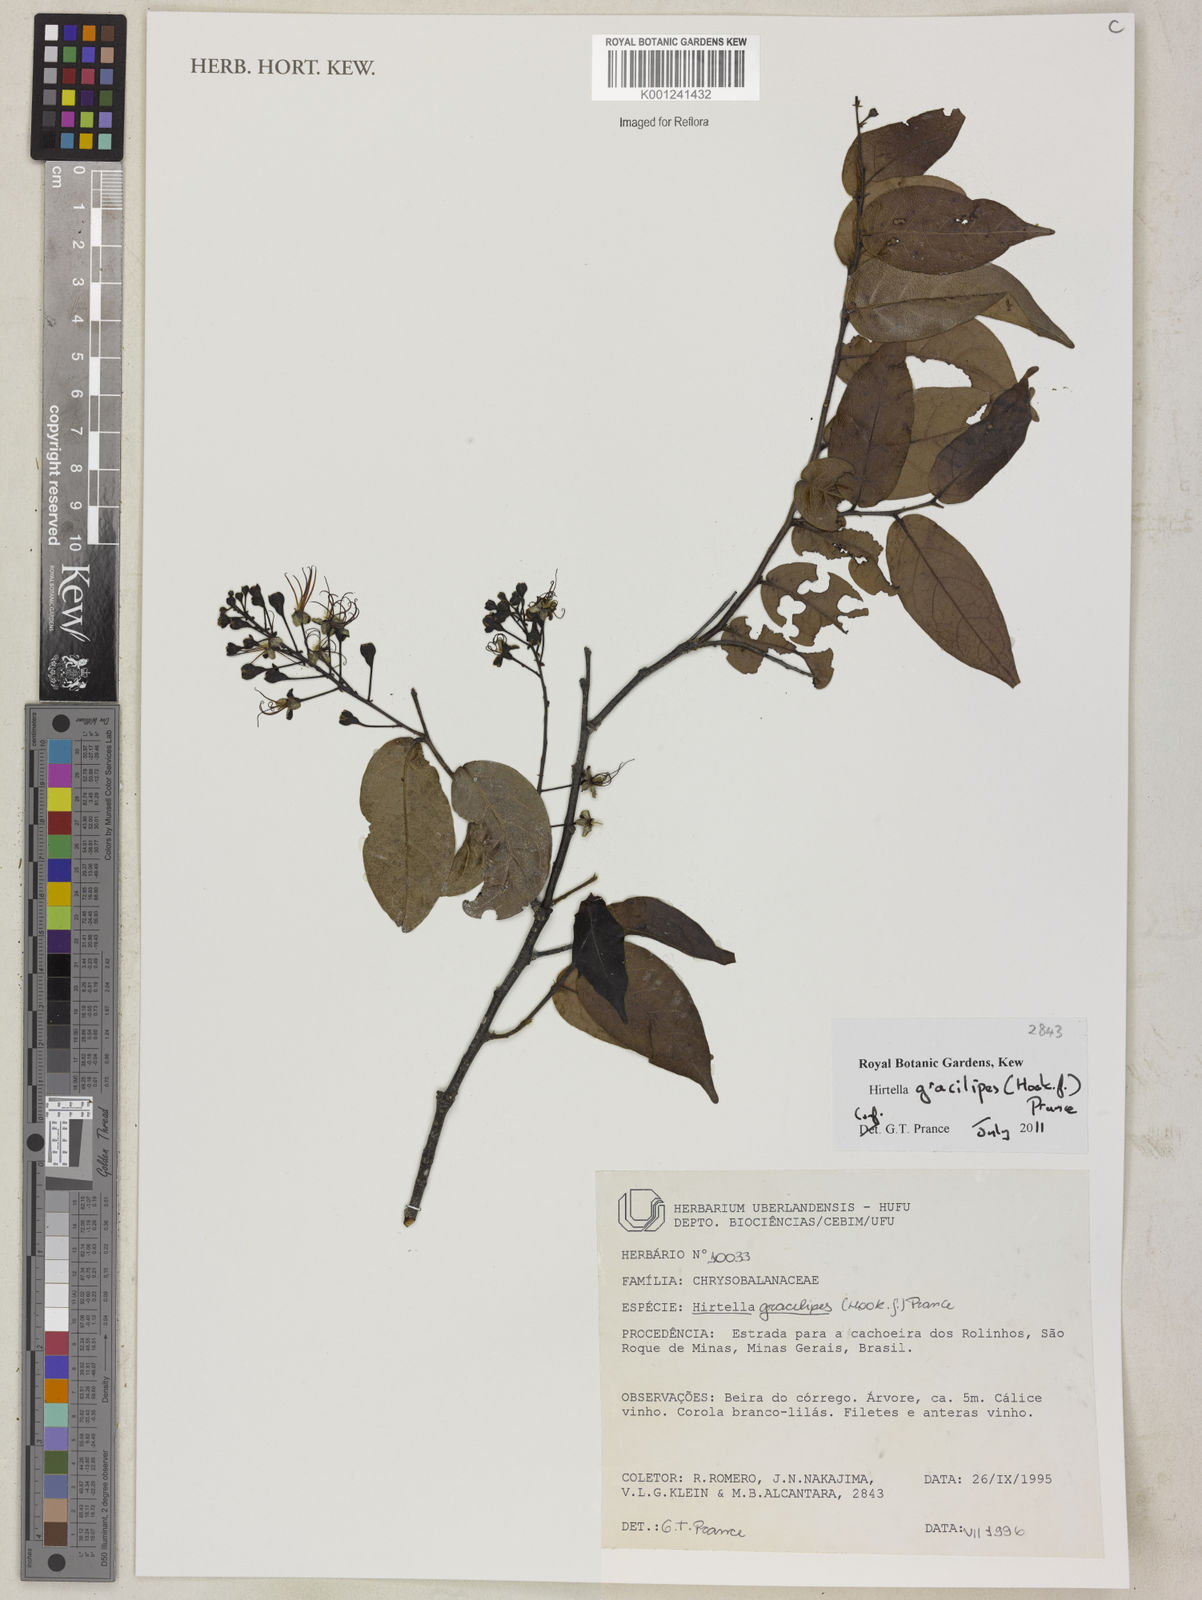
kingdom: Plantae
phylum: Tracheophyta
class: Magnoliopsida
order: Malpighiales
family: Chrysobalanaceae
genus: Hirtella
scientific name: Hirtella gracilipes
